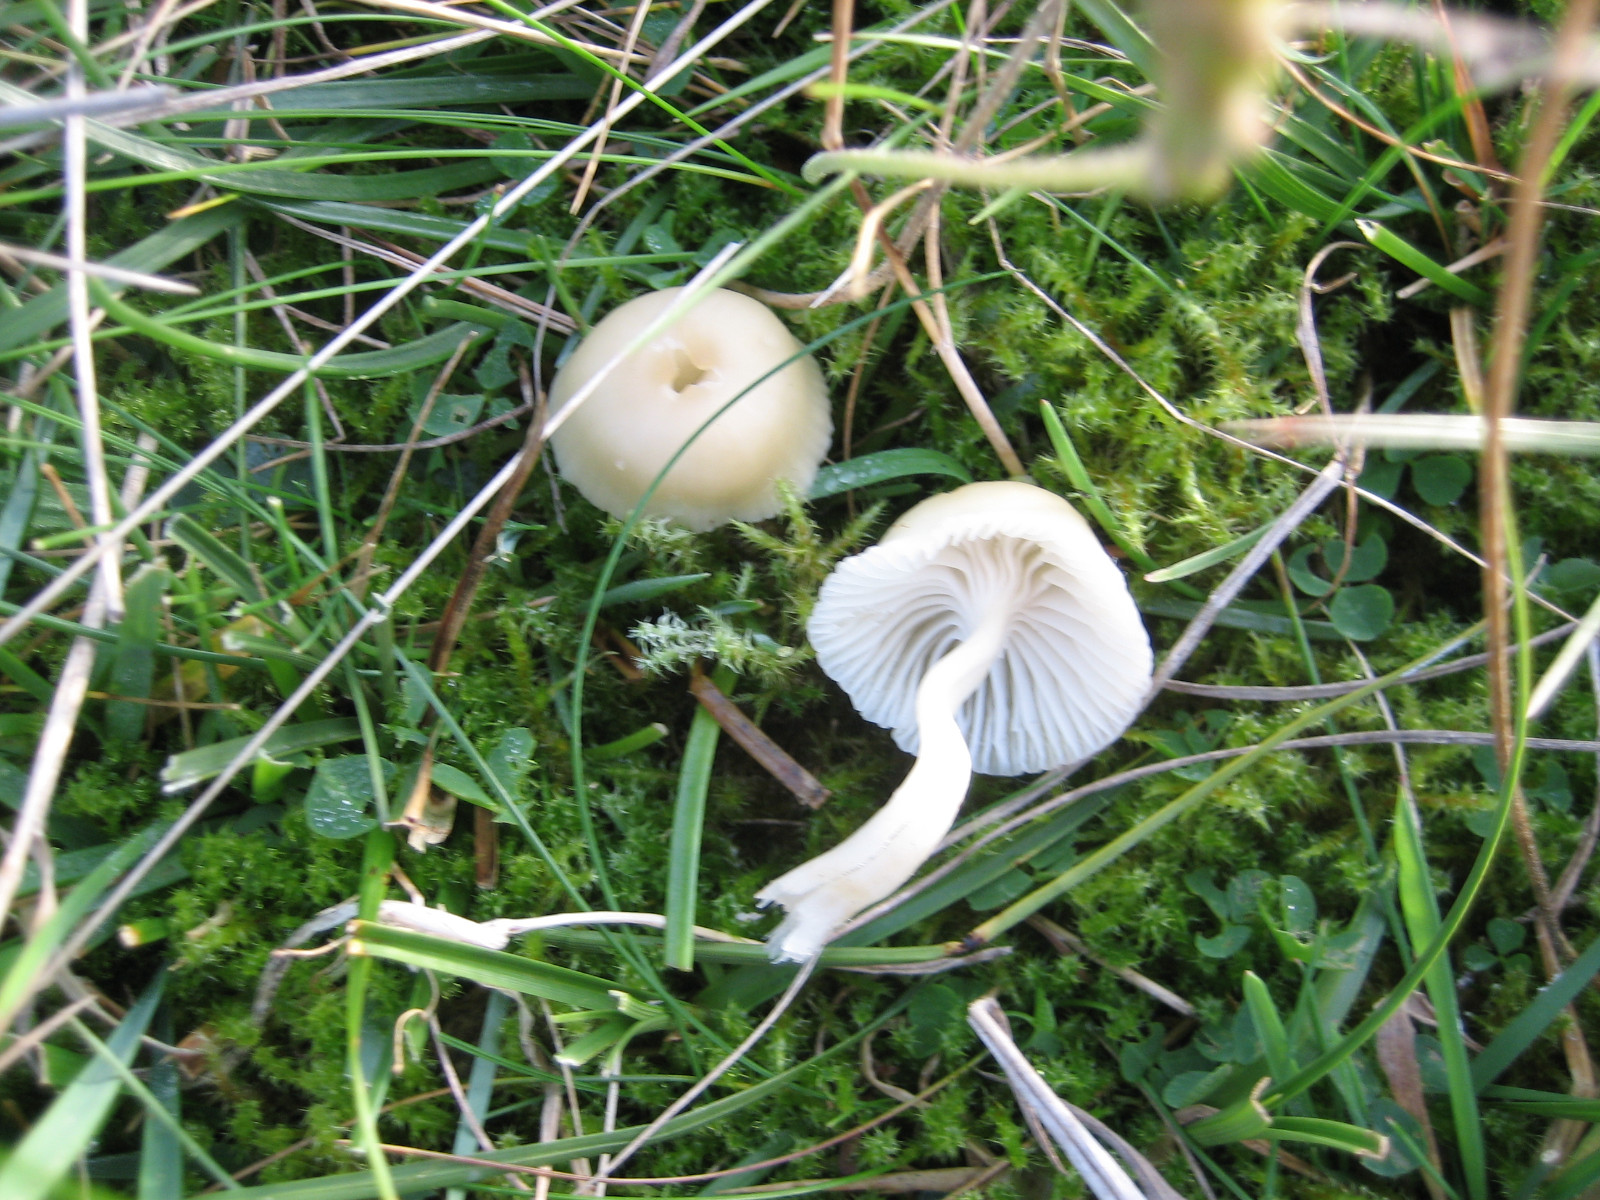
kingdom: Fungi
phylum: Basidiomycota
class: Agaricomycetes
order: Agaricales
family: Hygrophoraceae
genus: Cuphophyllus
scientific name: Cuphophyllus russocoriaceus
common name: ruslæder-vokshat
